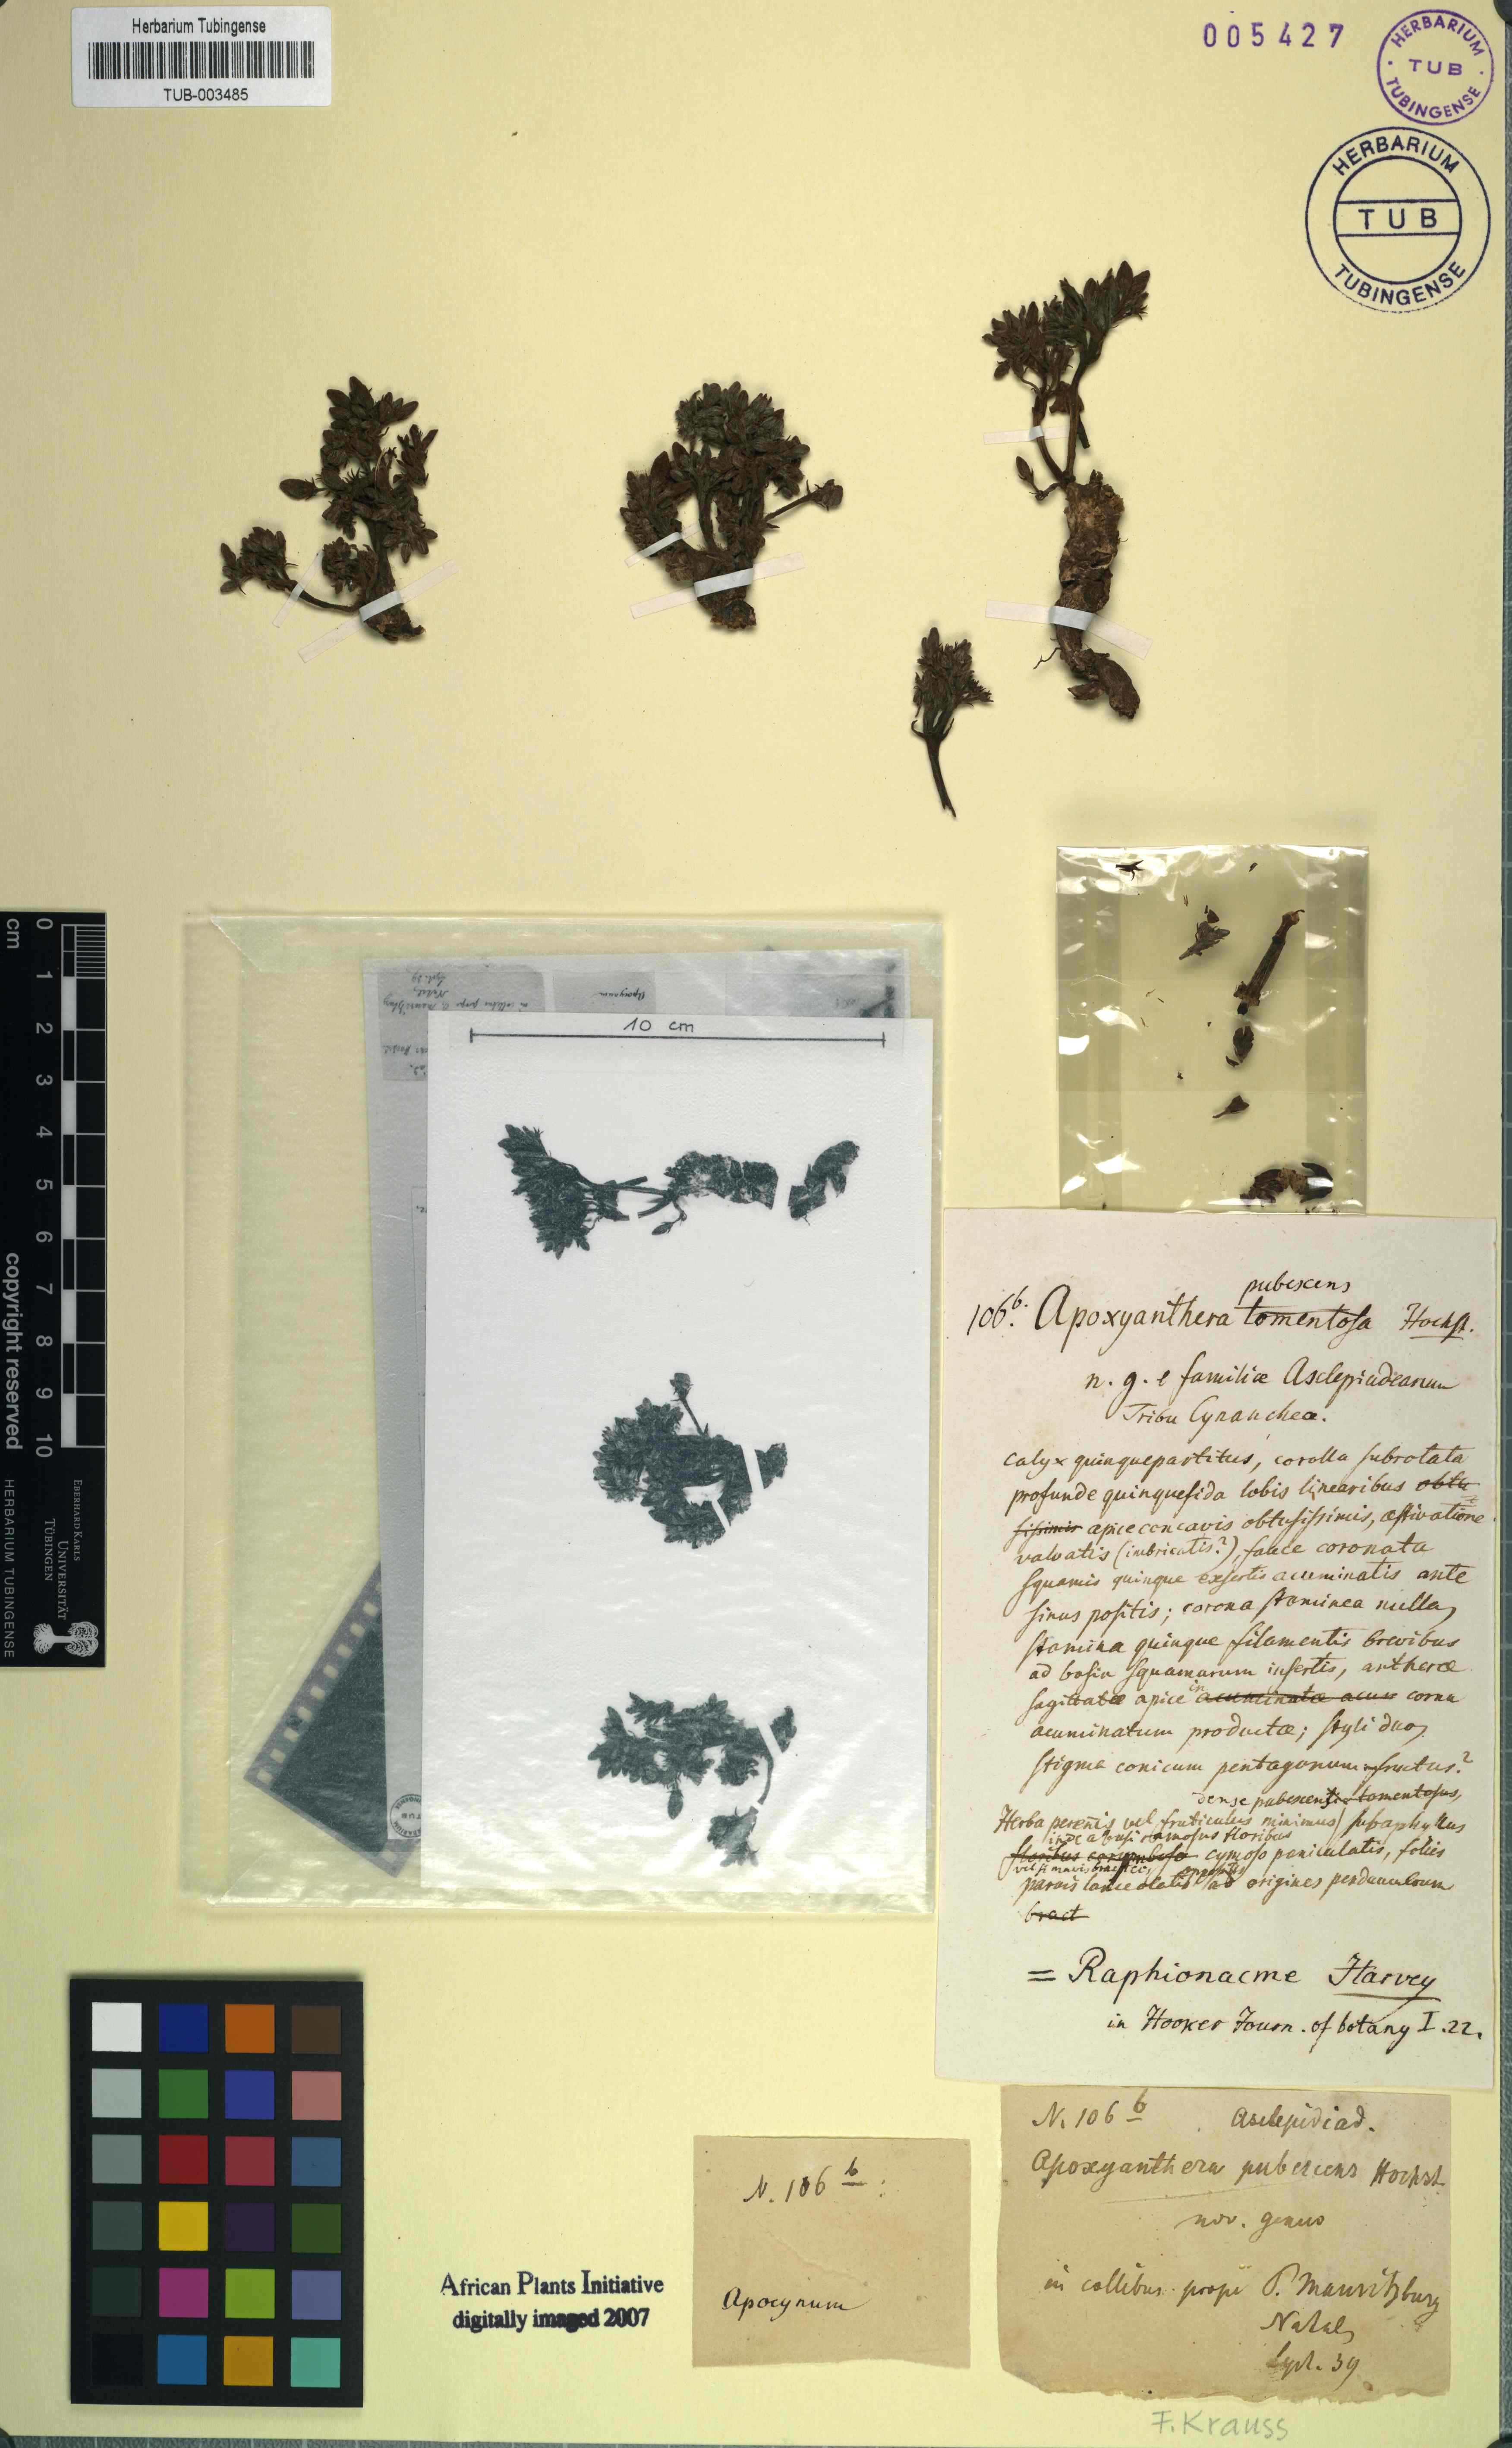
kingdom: Plantae
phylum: Tracheophyta
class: Magnoliopsida
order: Gentianales
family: Apocynaceae
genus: Raphionacme
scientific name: Raphionacme hirsuta
